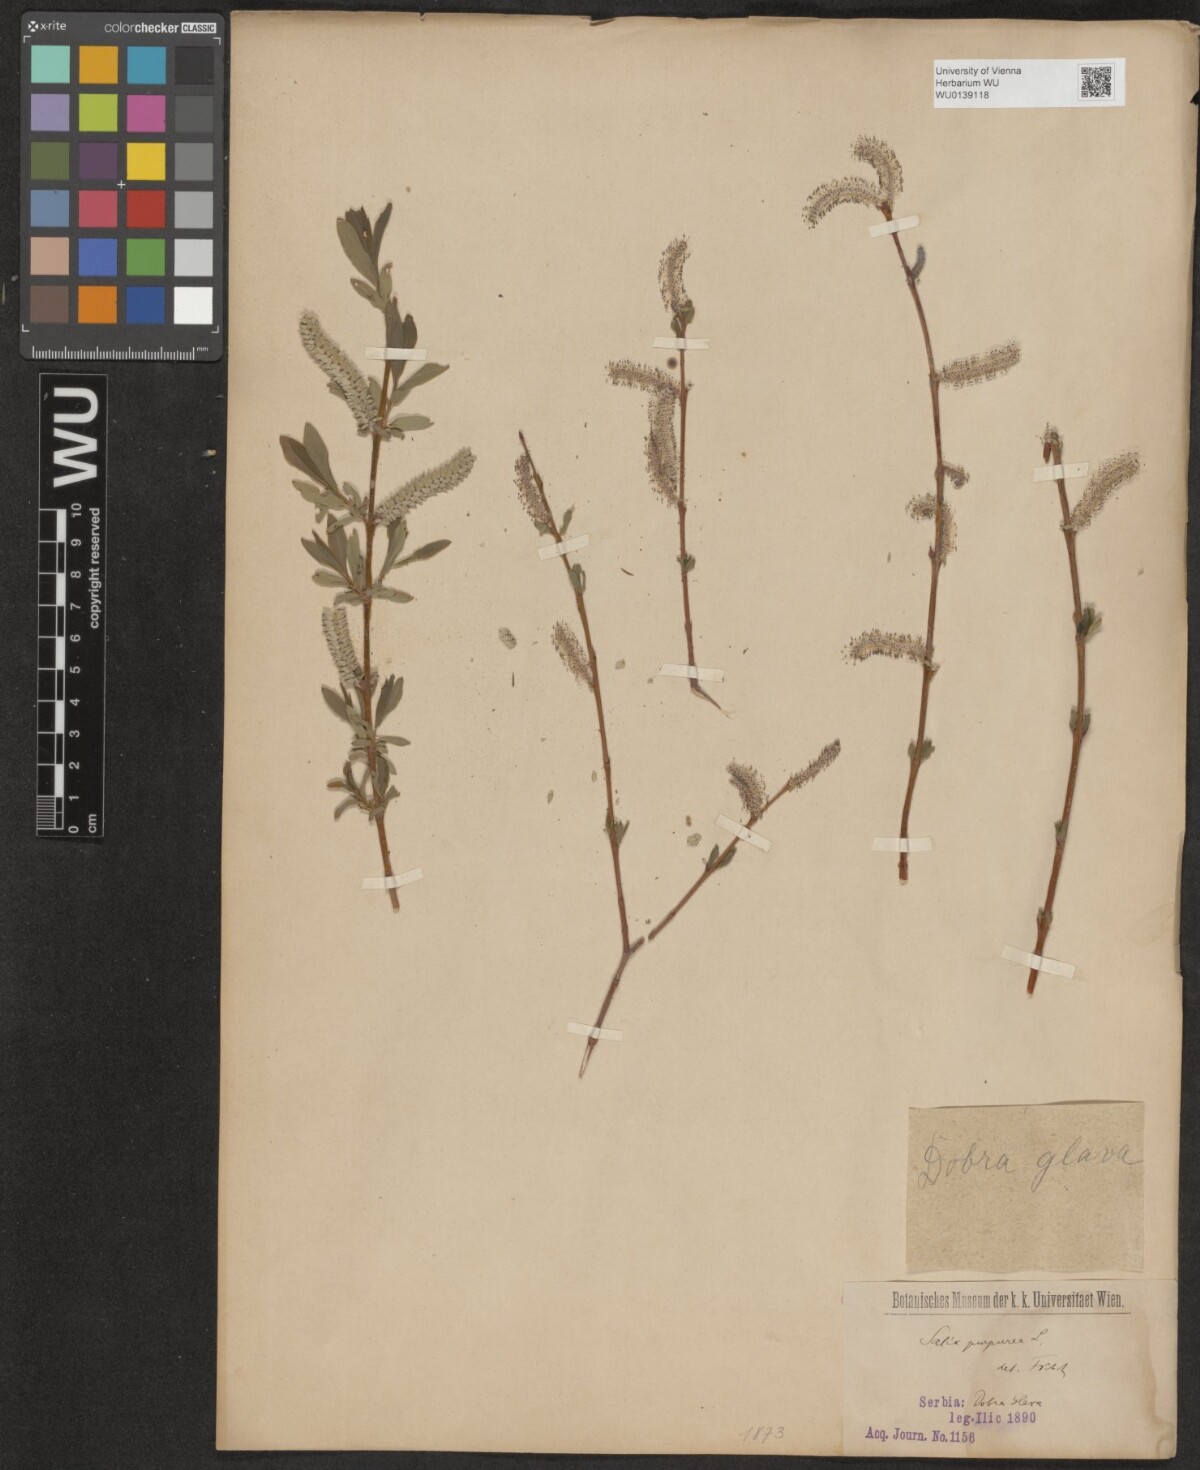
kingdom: Plantae
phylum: Tracheophyta
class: Magnoliopsida
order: Malpighiales
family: Salicaceae
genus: Salix
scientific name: Salix purpurea
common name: Purple willow
